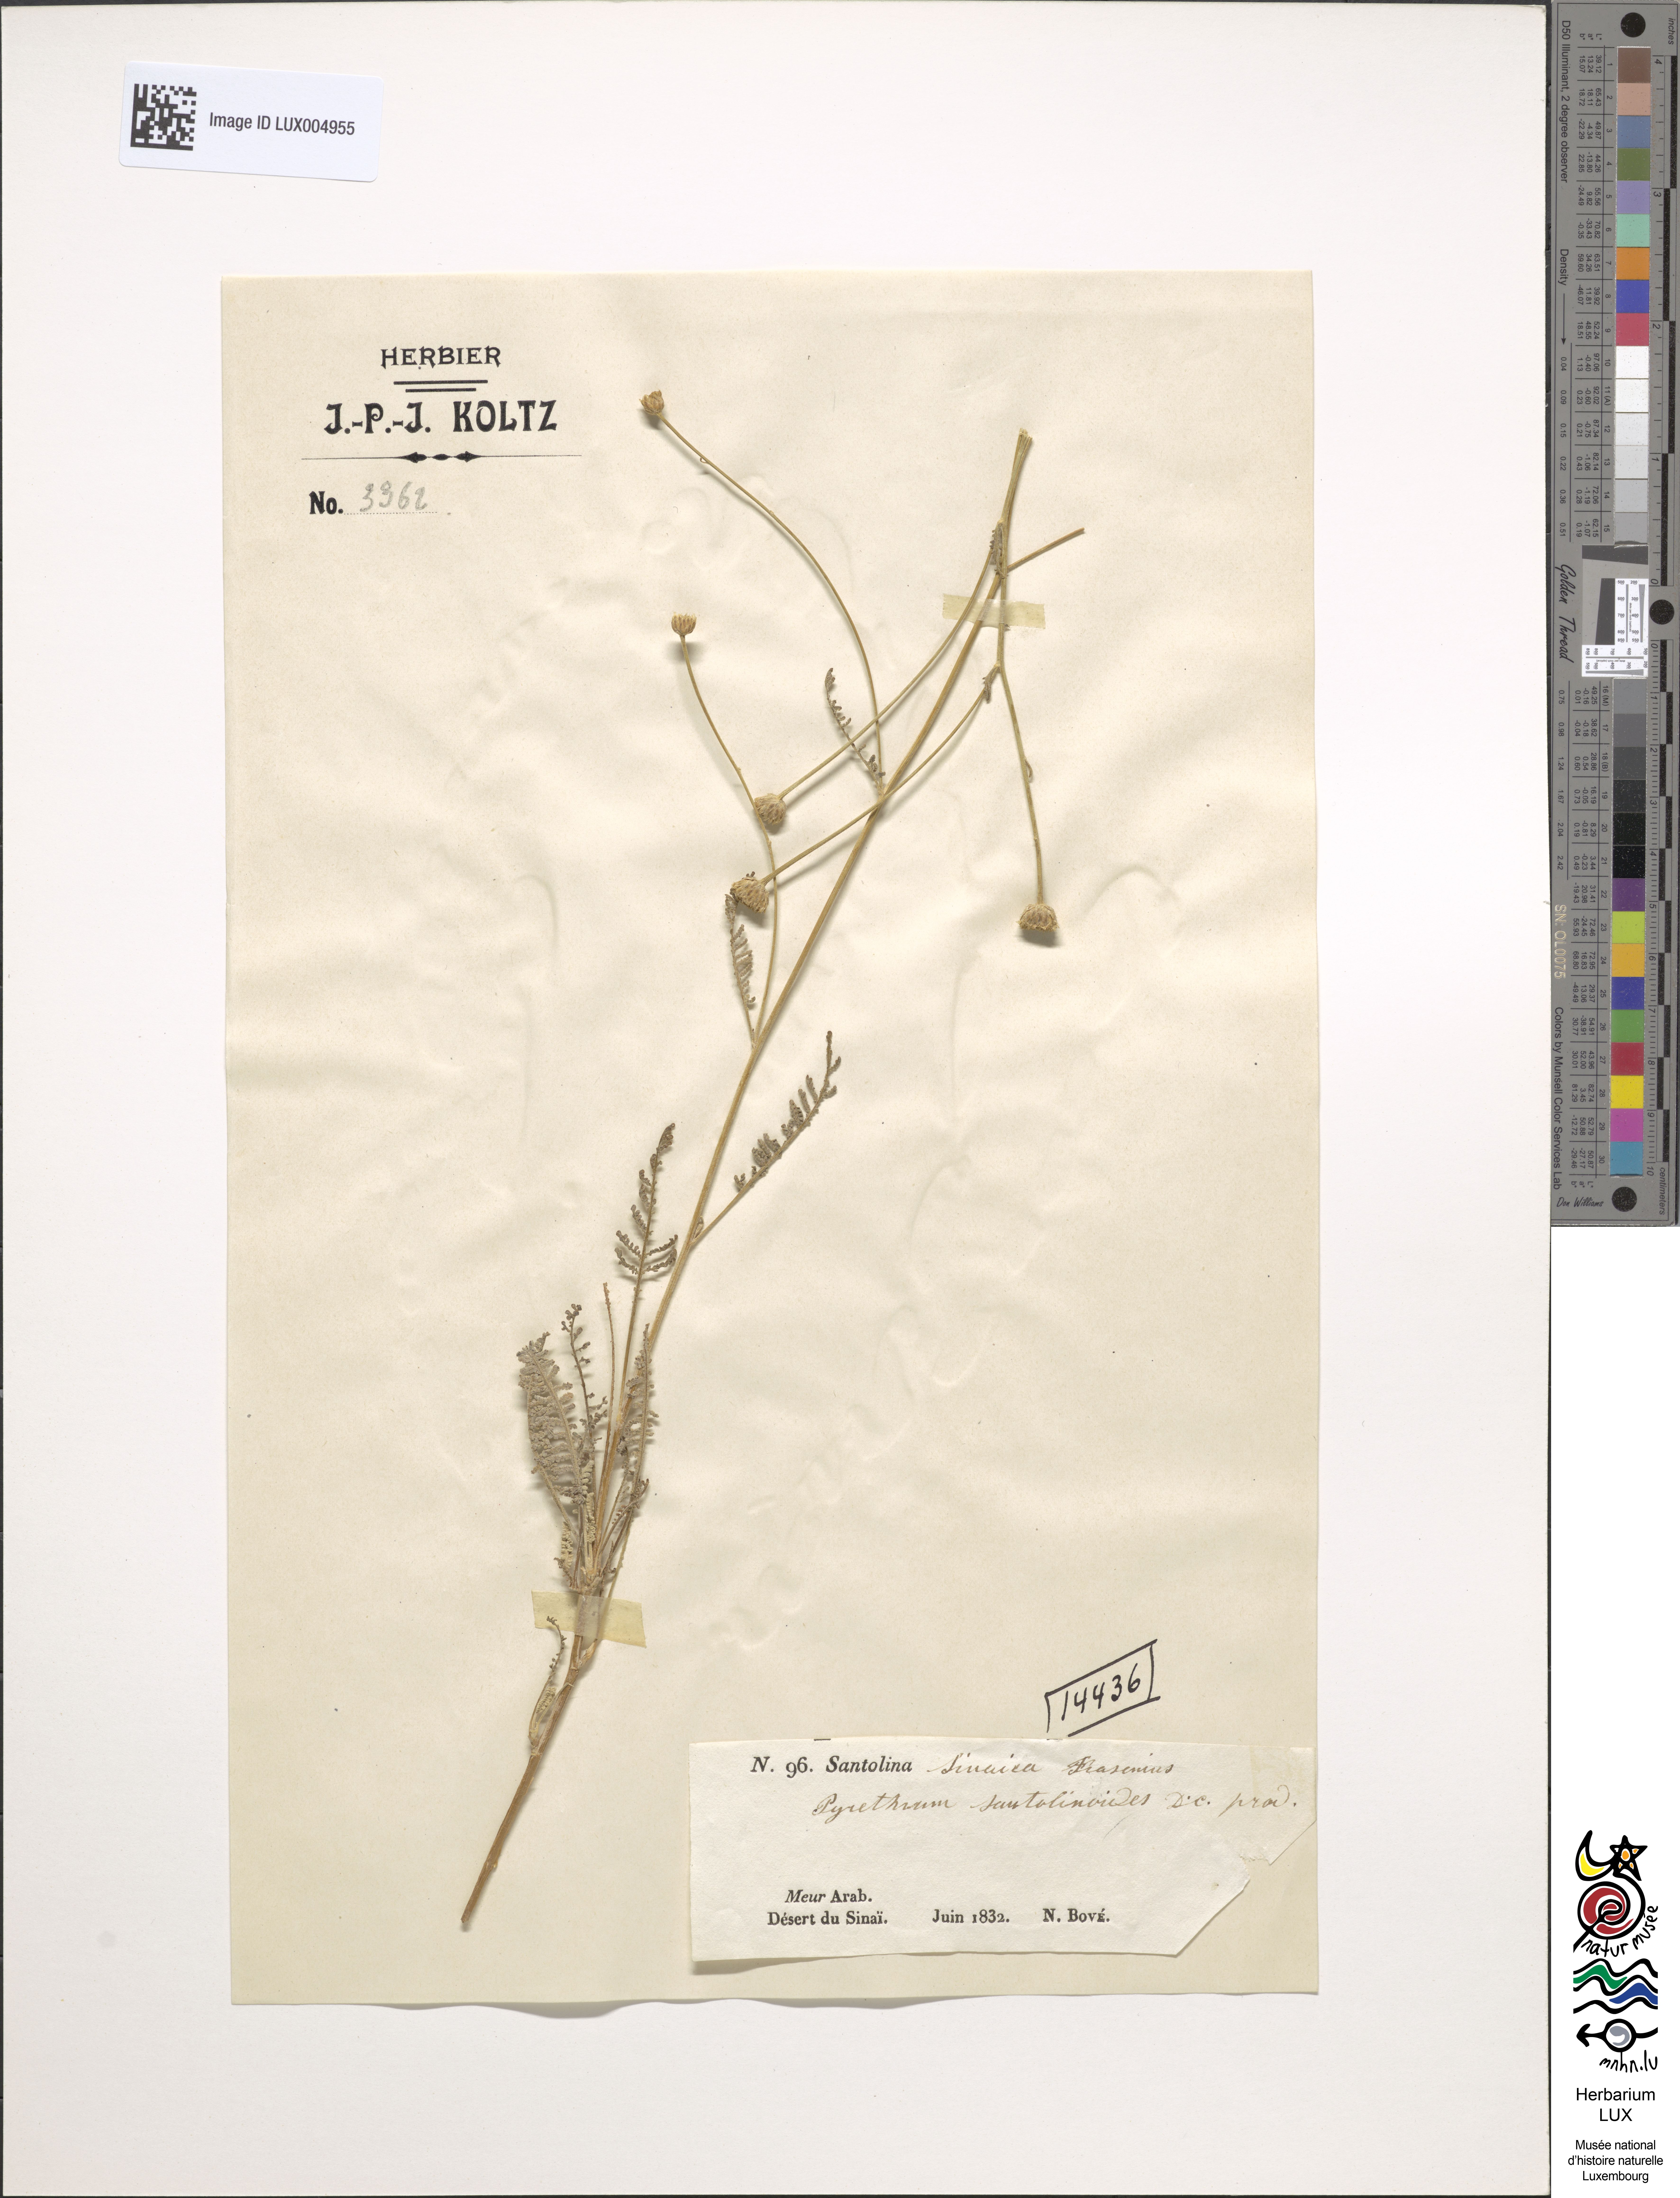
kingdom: Plantae
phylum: Tracheophyta
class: Magnoliopsida
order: Asterales
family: Asteraceae
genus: Tanacetum
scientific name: Tanacetum sinaicum
